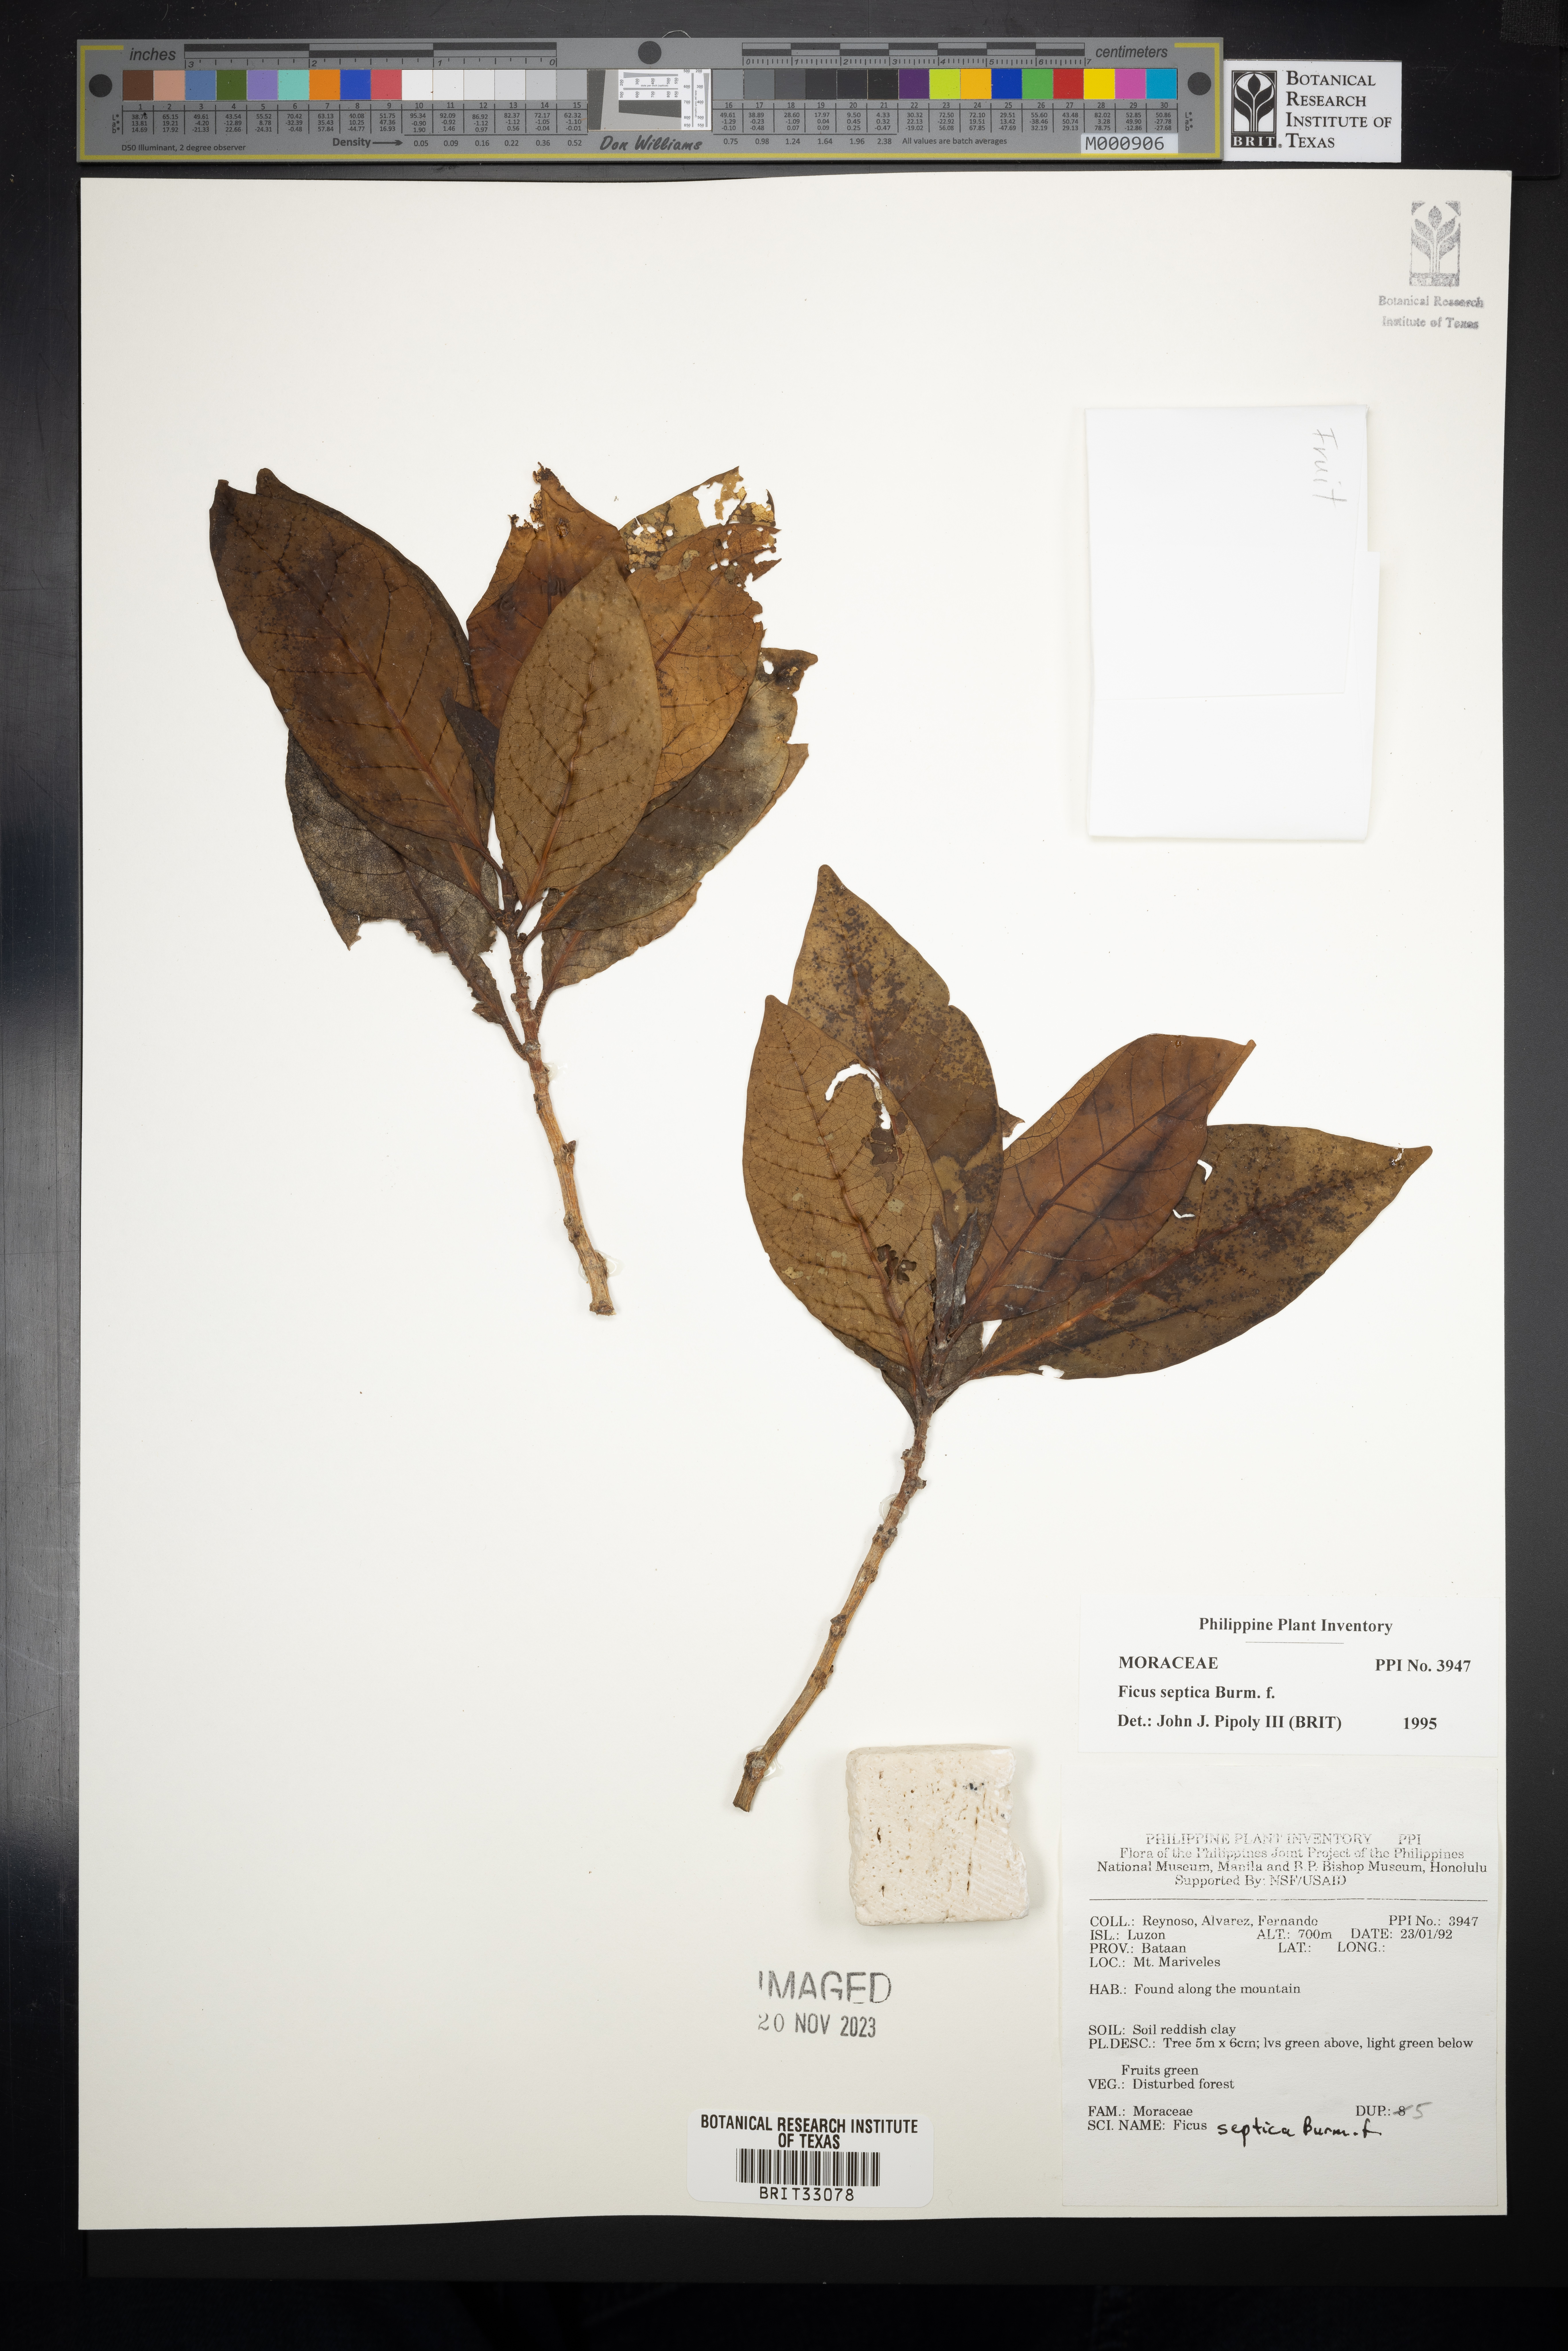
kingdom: Plantae
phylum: Tracheophyta
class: Magnoliopsida
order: Rosales
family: Moraceae
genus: Ficus
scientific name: Ficus septica
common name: Septic fig
